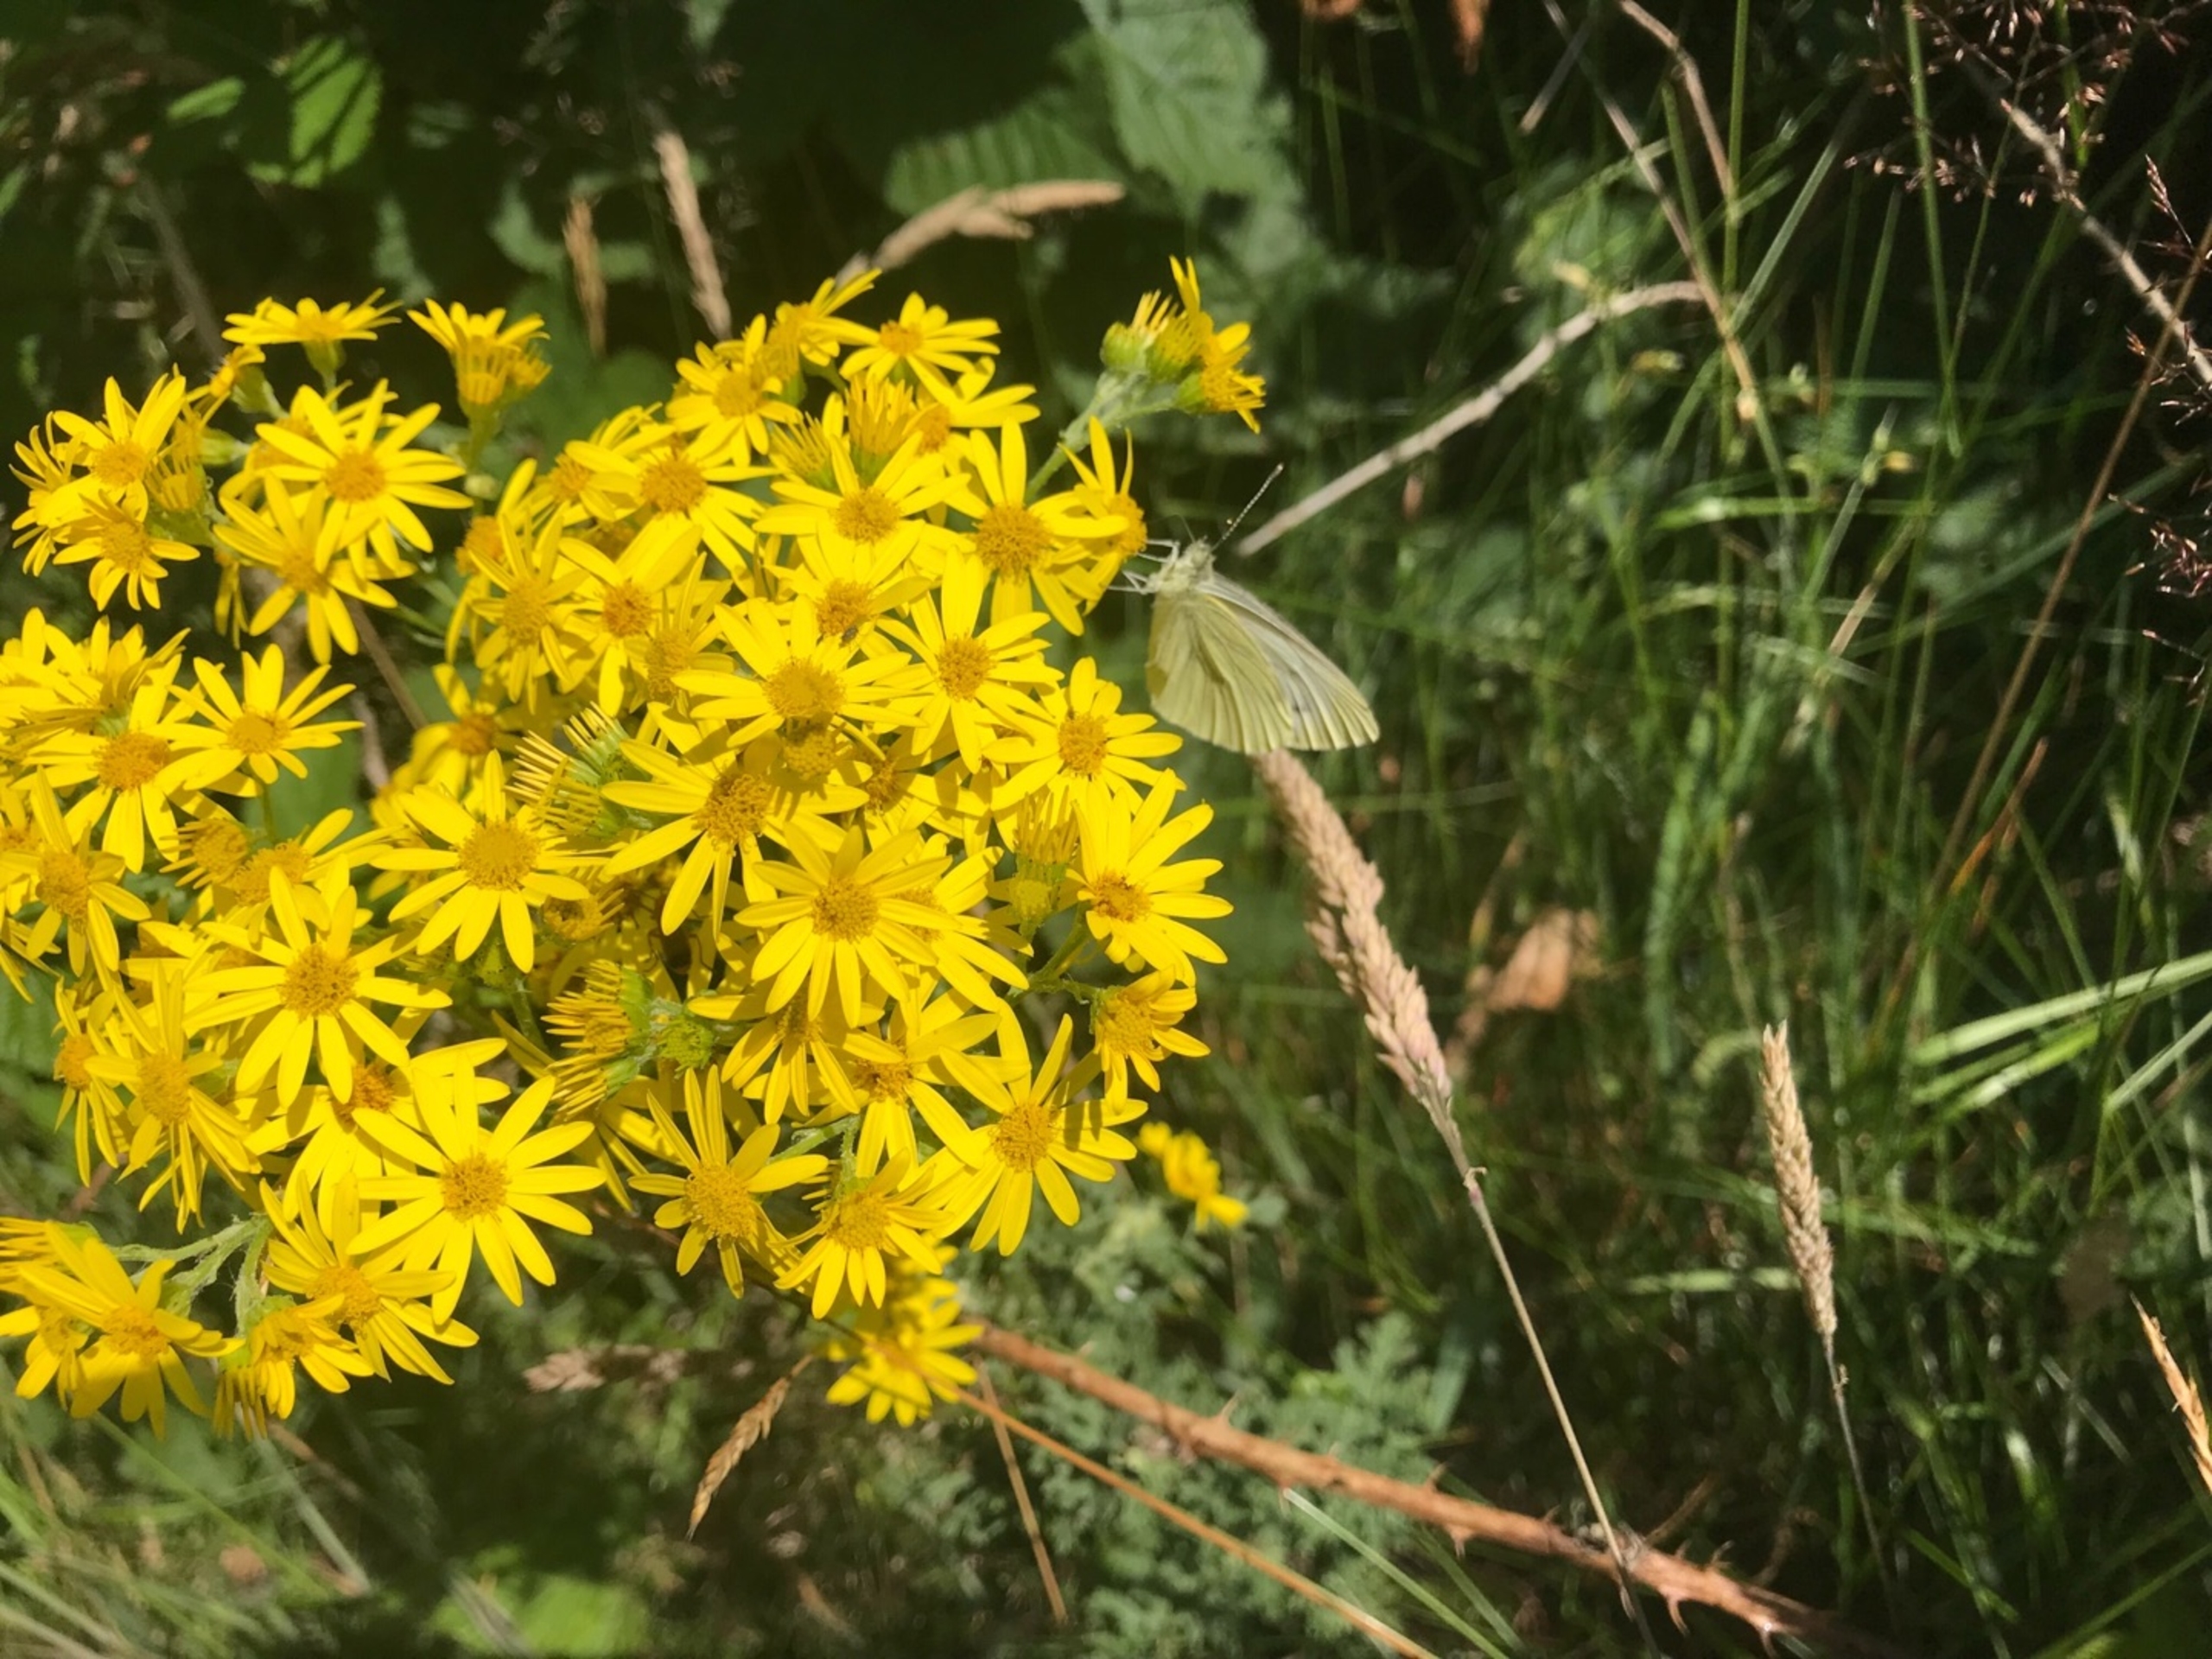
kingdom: Animalia
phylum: Arthropoda
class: Insecta
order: Lepidoptera
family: Pieridae
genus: Pieris
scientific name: Pieris napi
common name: Grønåret kålsommerfugl
